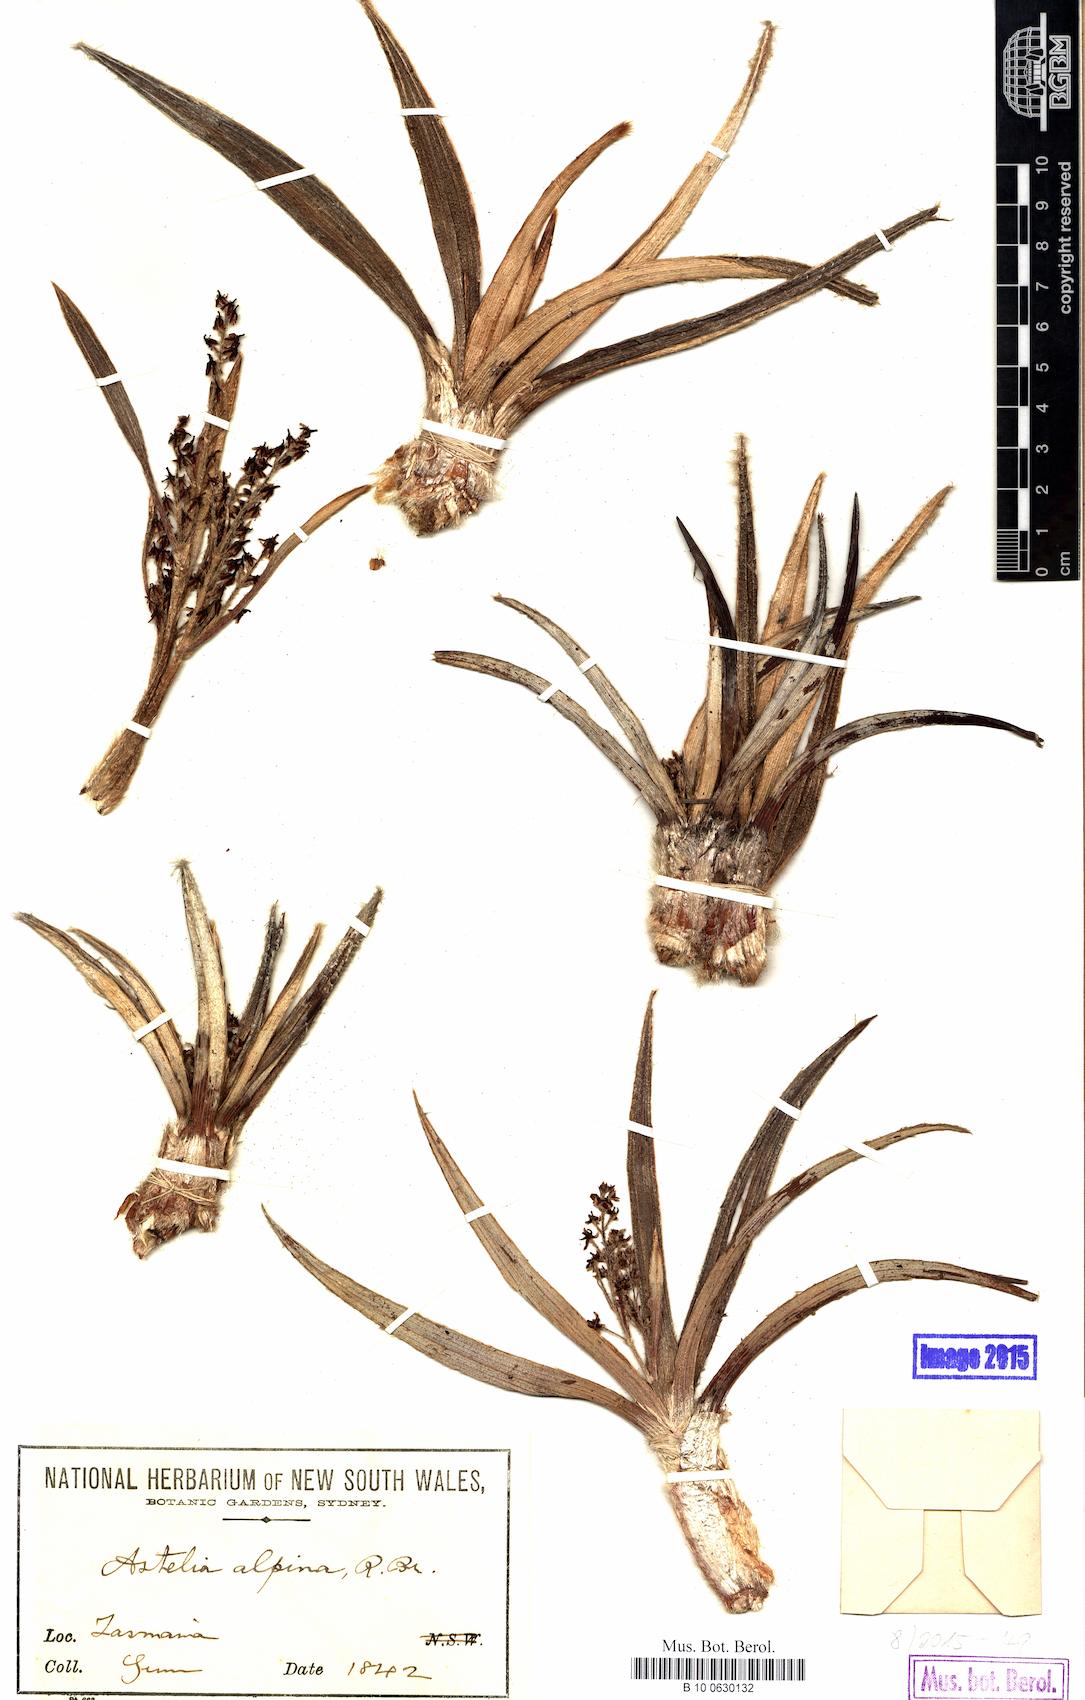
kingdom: Plantae
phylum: Tracheophyta
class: Magnoliopsida
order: Ericales
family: Primulaceae
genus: Ardisia
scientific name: Ardisia paschalis
